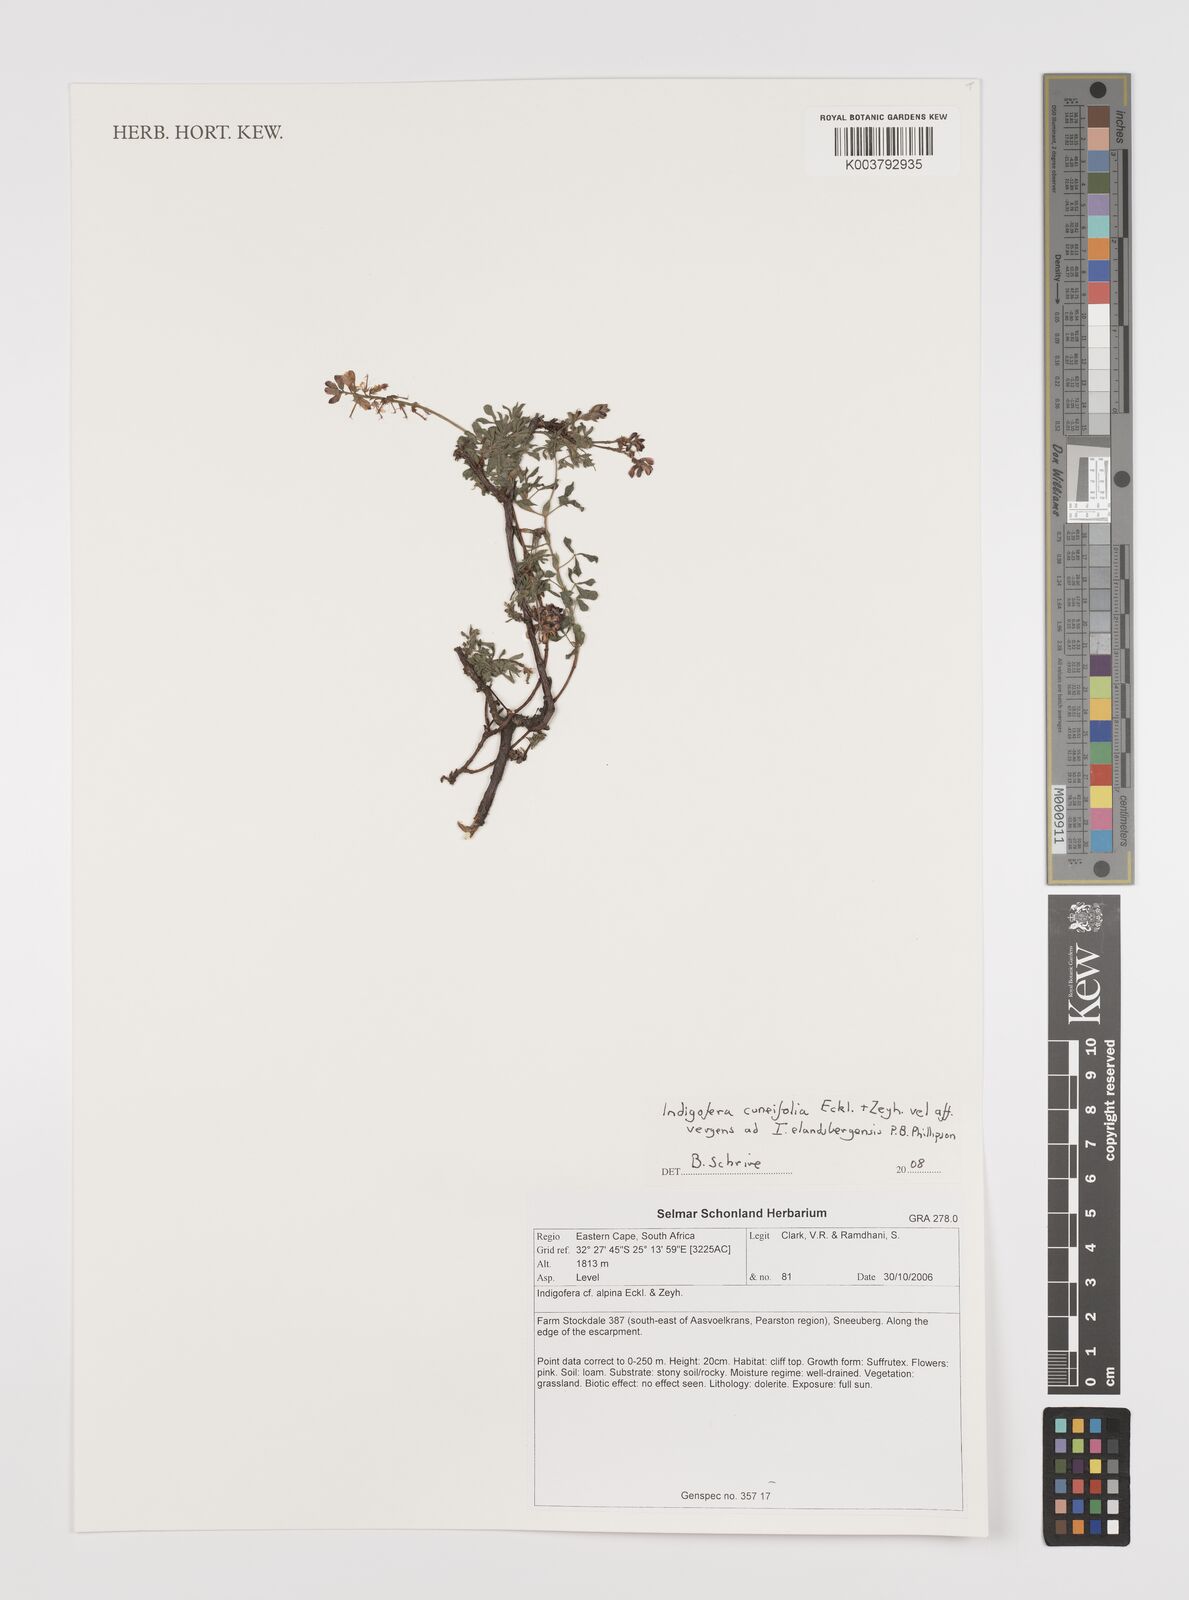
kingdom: Plantae
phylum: Tracheophyta
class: Magnoliopsida
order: Fabales
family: Fabaceae
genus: Indigofera
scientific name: Indigofera cuneifolia
